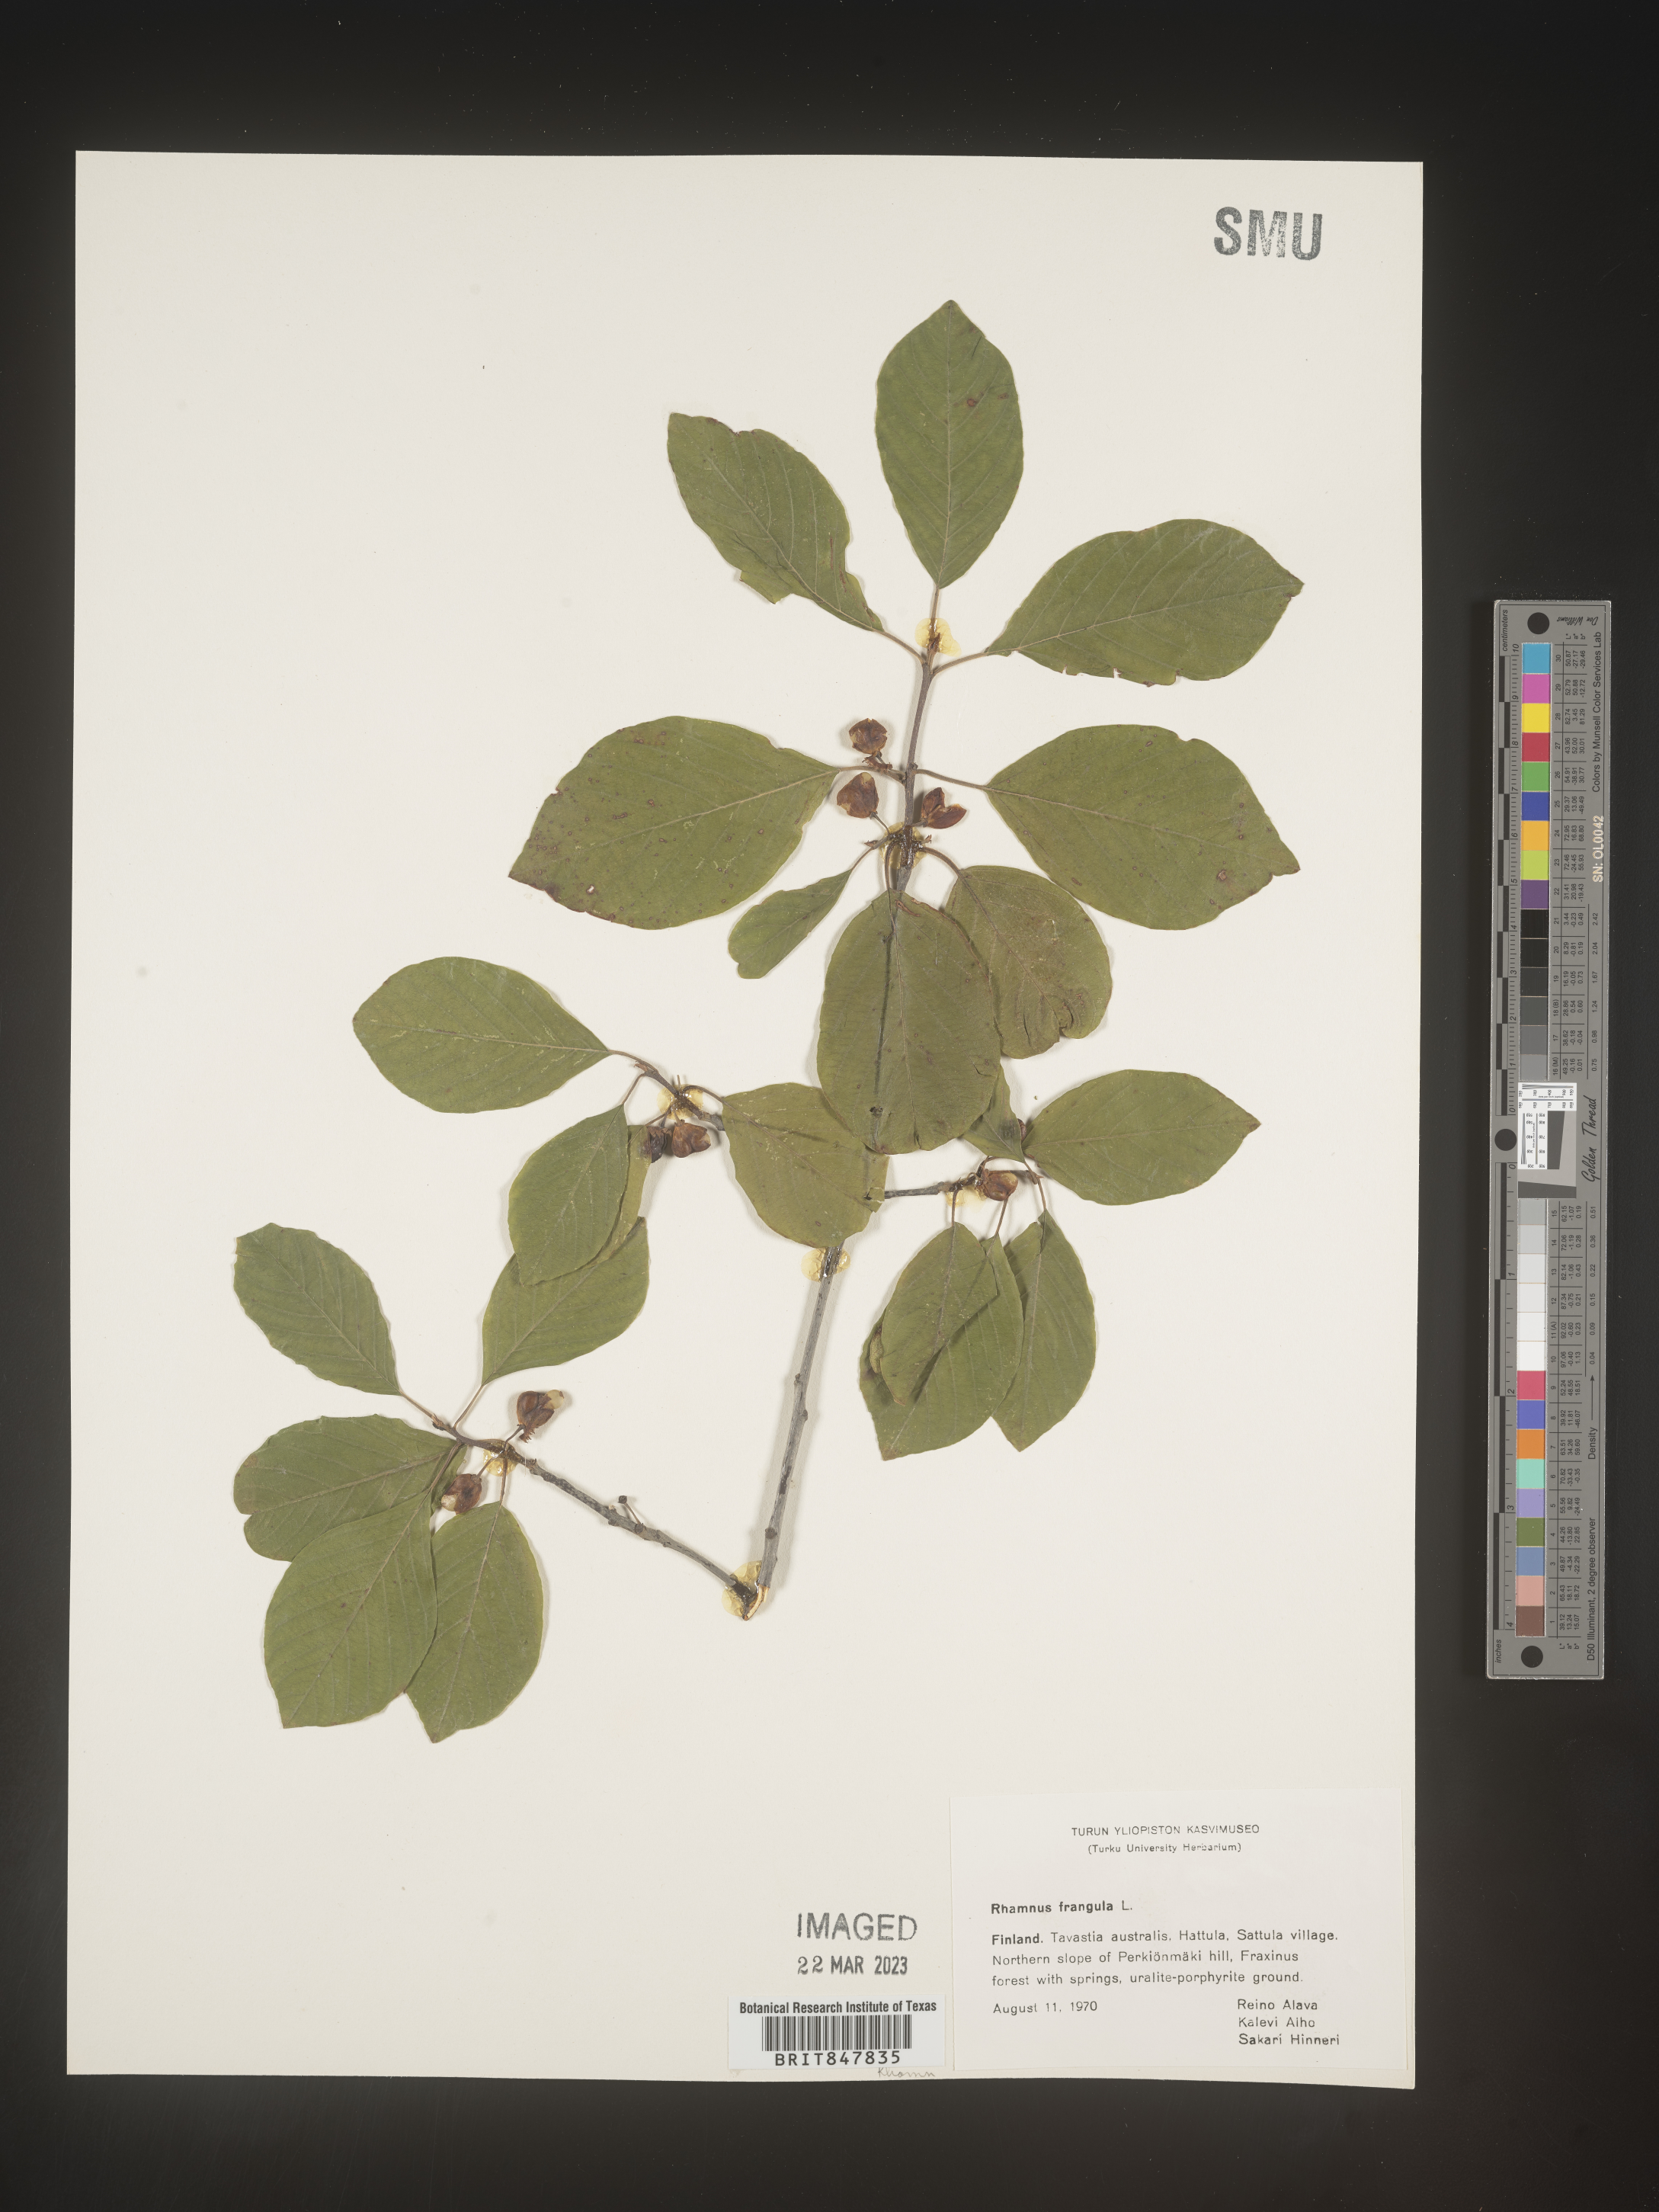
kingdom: Plantae
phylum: Tracheophyta
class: Magnoliopsida
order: Rosales
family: Rhamnaceae
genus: Rhamnus
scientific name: Rhamnus
